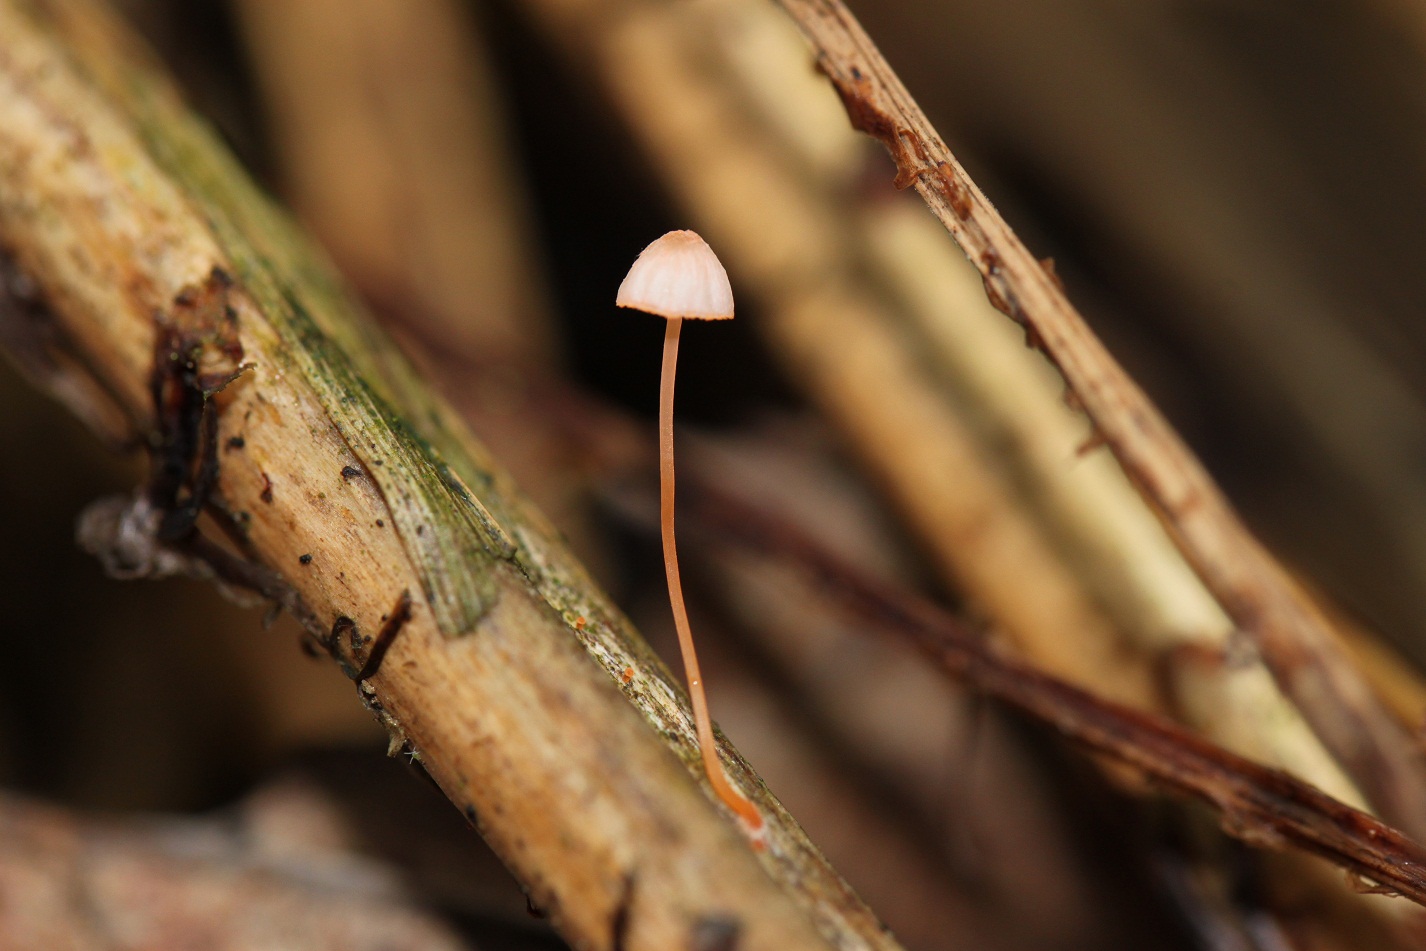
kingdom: Fungi
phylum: Basidiomycota
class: Agaricomycetes
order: Agaricales
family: Mycenaceae
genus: Mycena
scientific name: Mycena pterigena
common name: bregne-huesvamp
